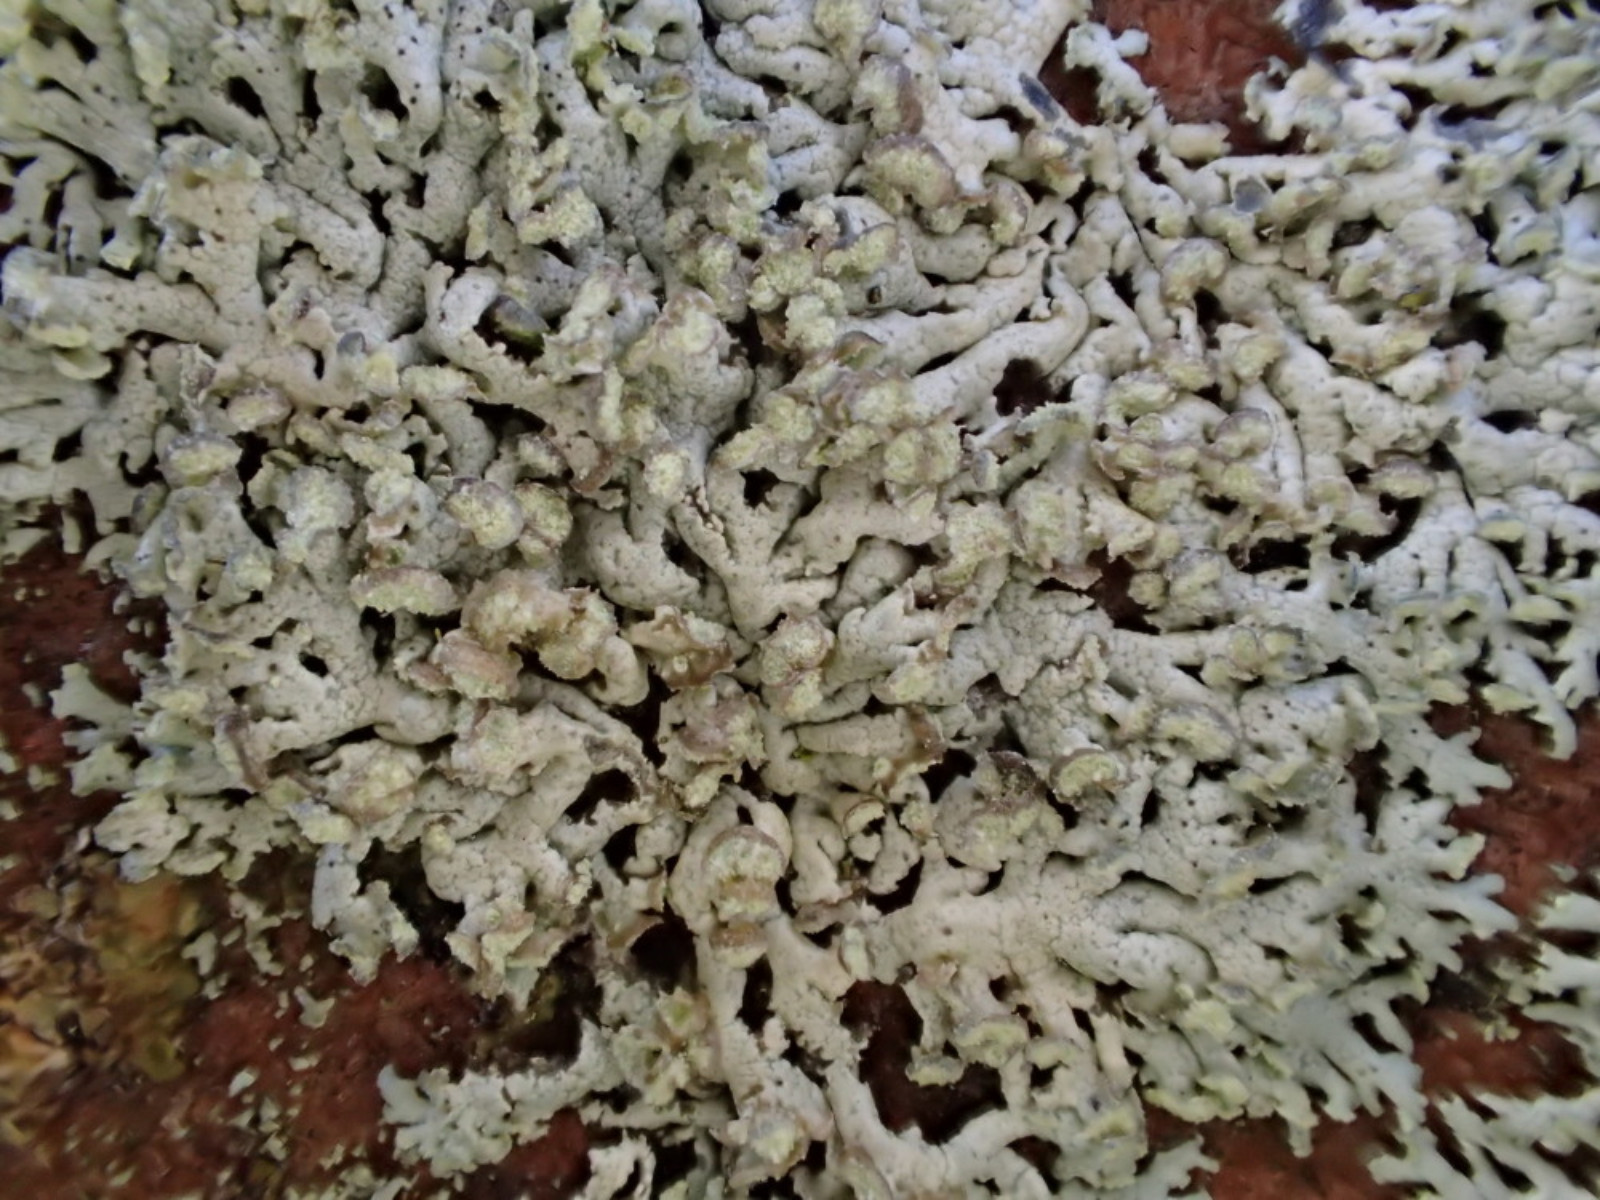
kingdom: Fungi
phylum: Ascomycota
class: Lecanoromycetes
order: Caliciales
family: Physciaceae
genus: Physcia
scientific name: Physcia dubia
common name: fuglestens-rosetlav
